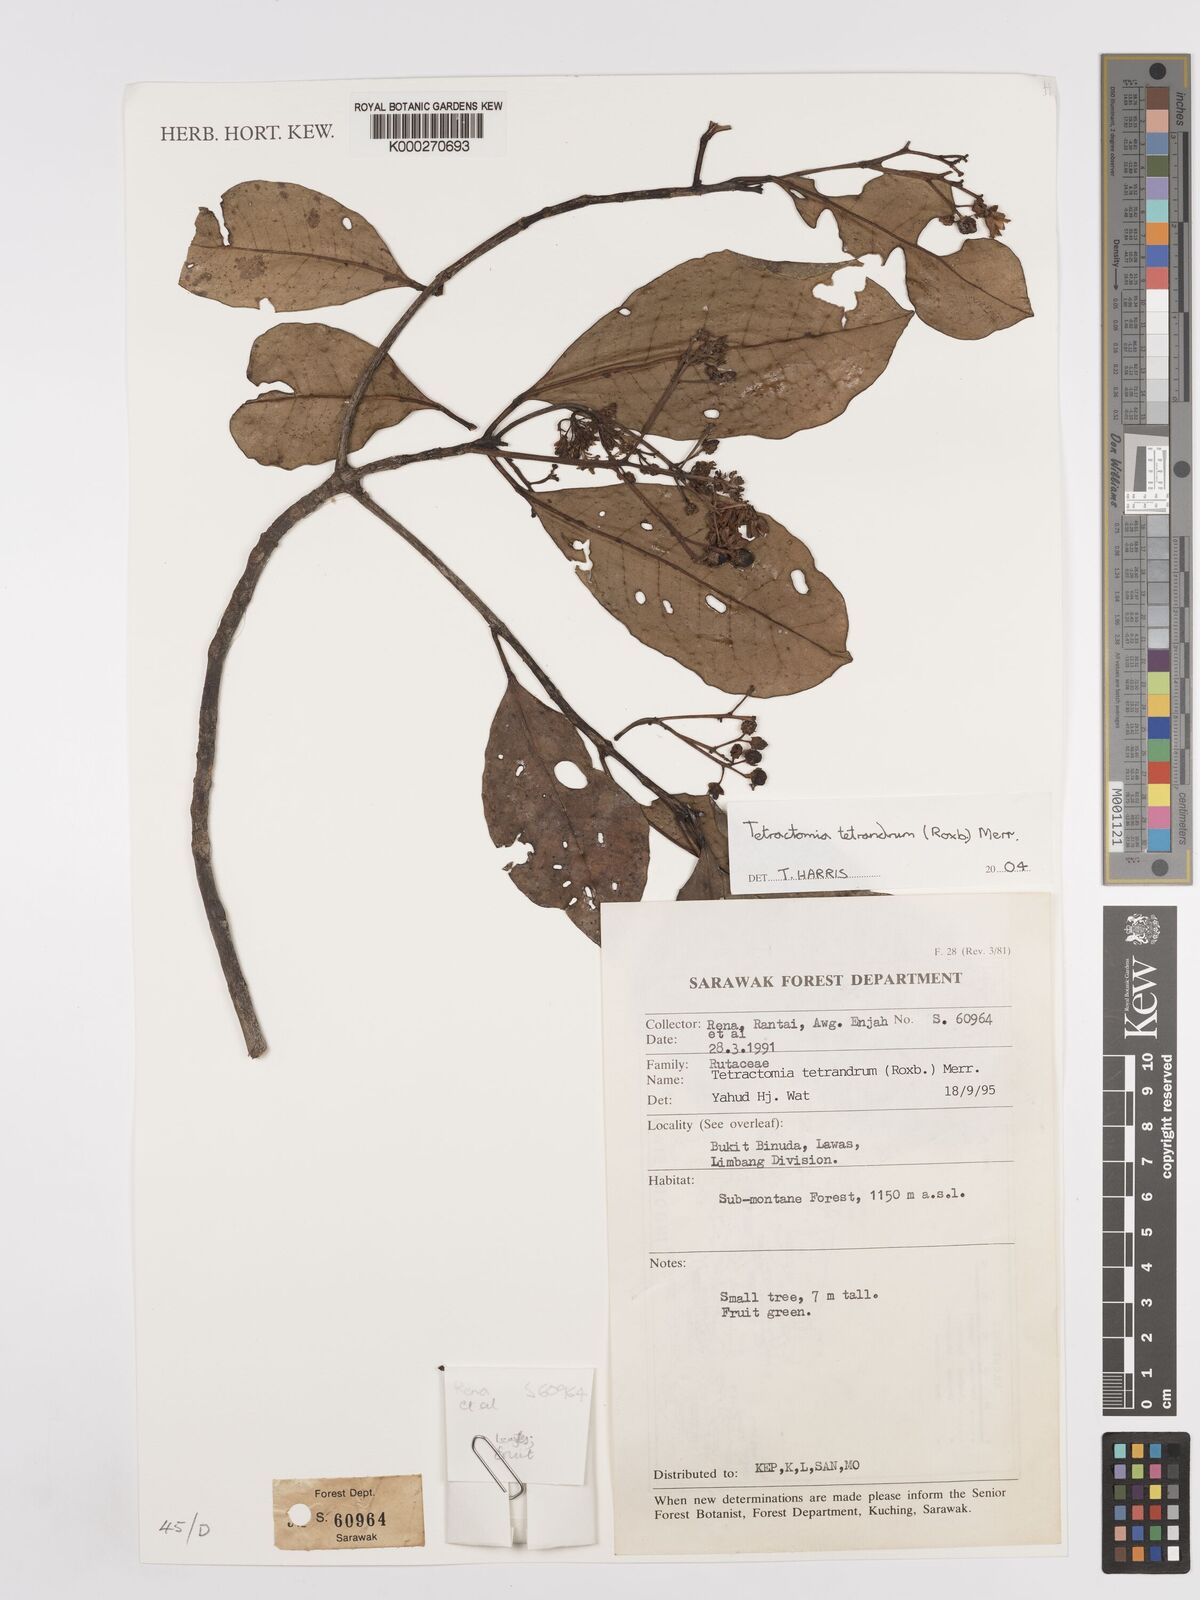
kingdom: Plantae
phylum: Tracheophyta
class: Magnoliopsida
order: Sapindales
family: Rutaceae
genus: Tetractomia
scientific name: Tetractomia tetrandra
